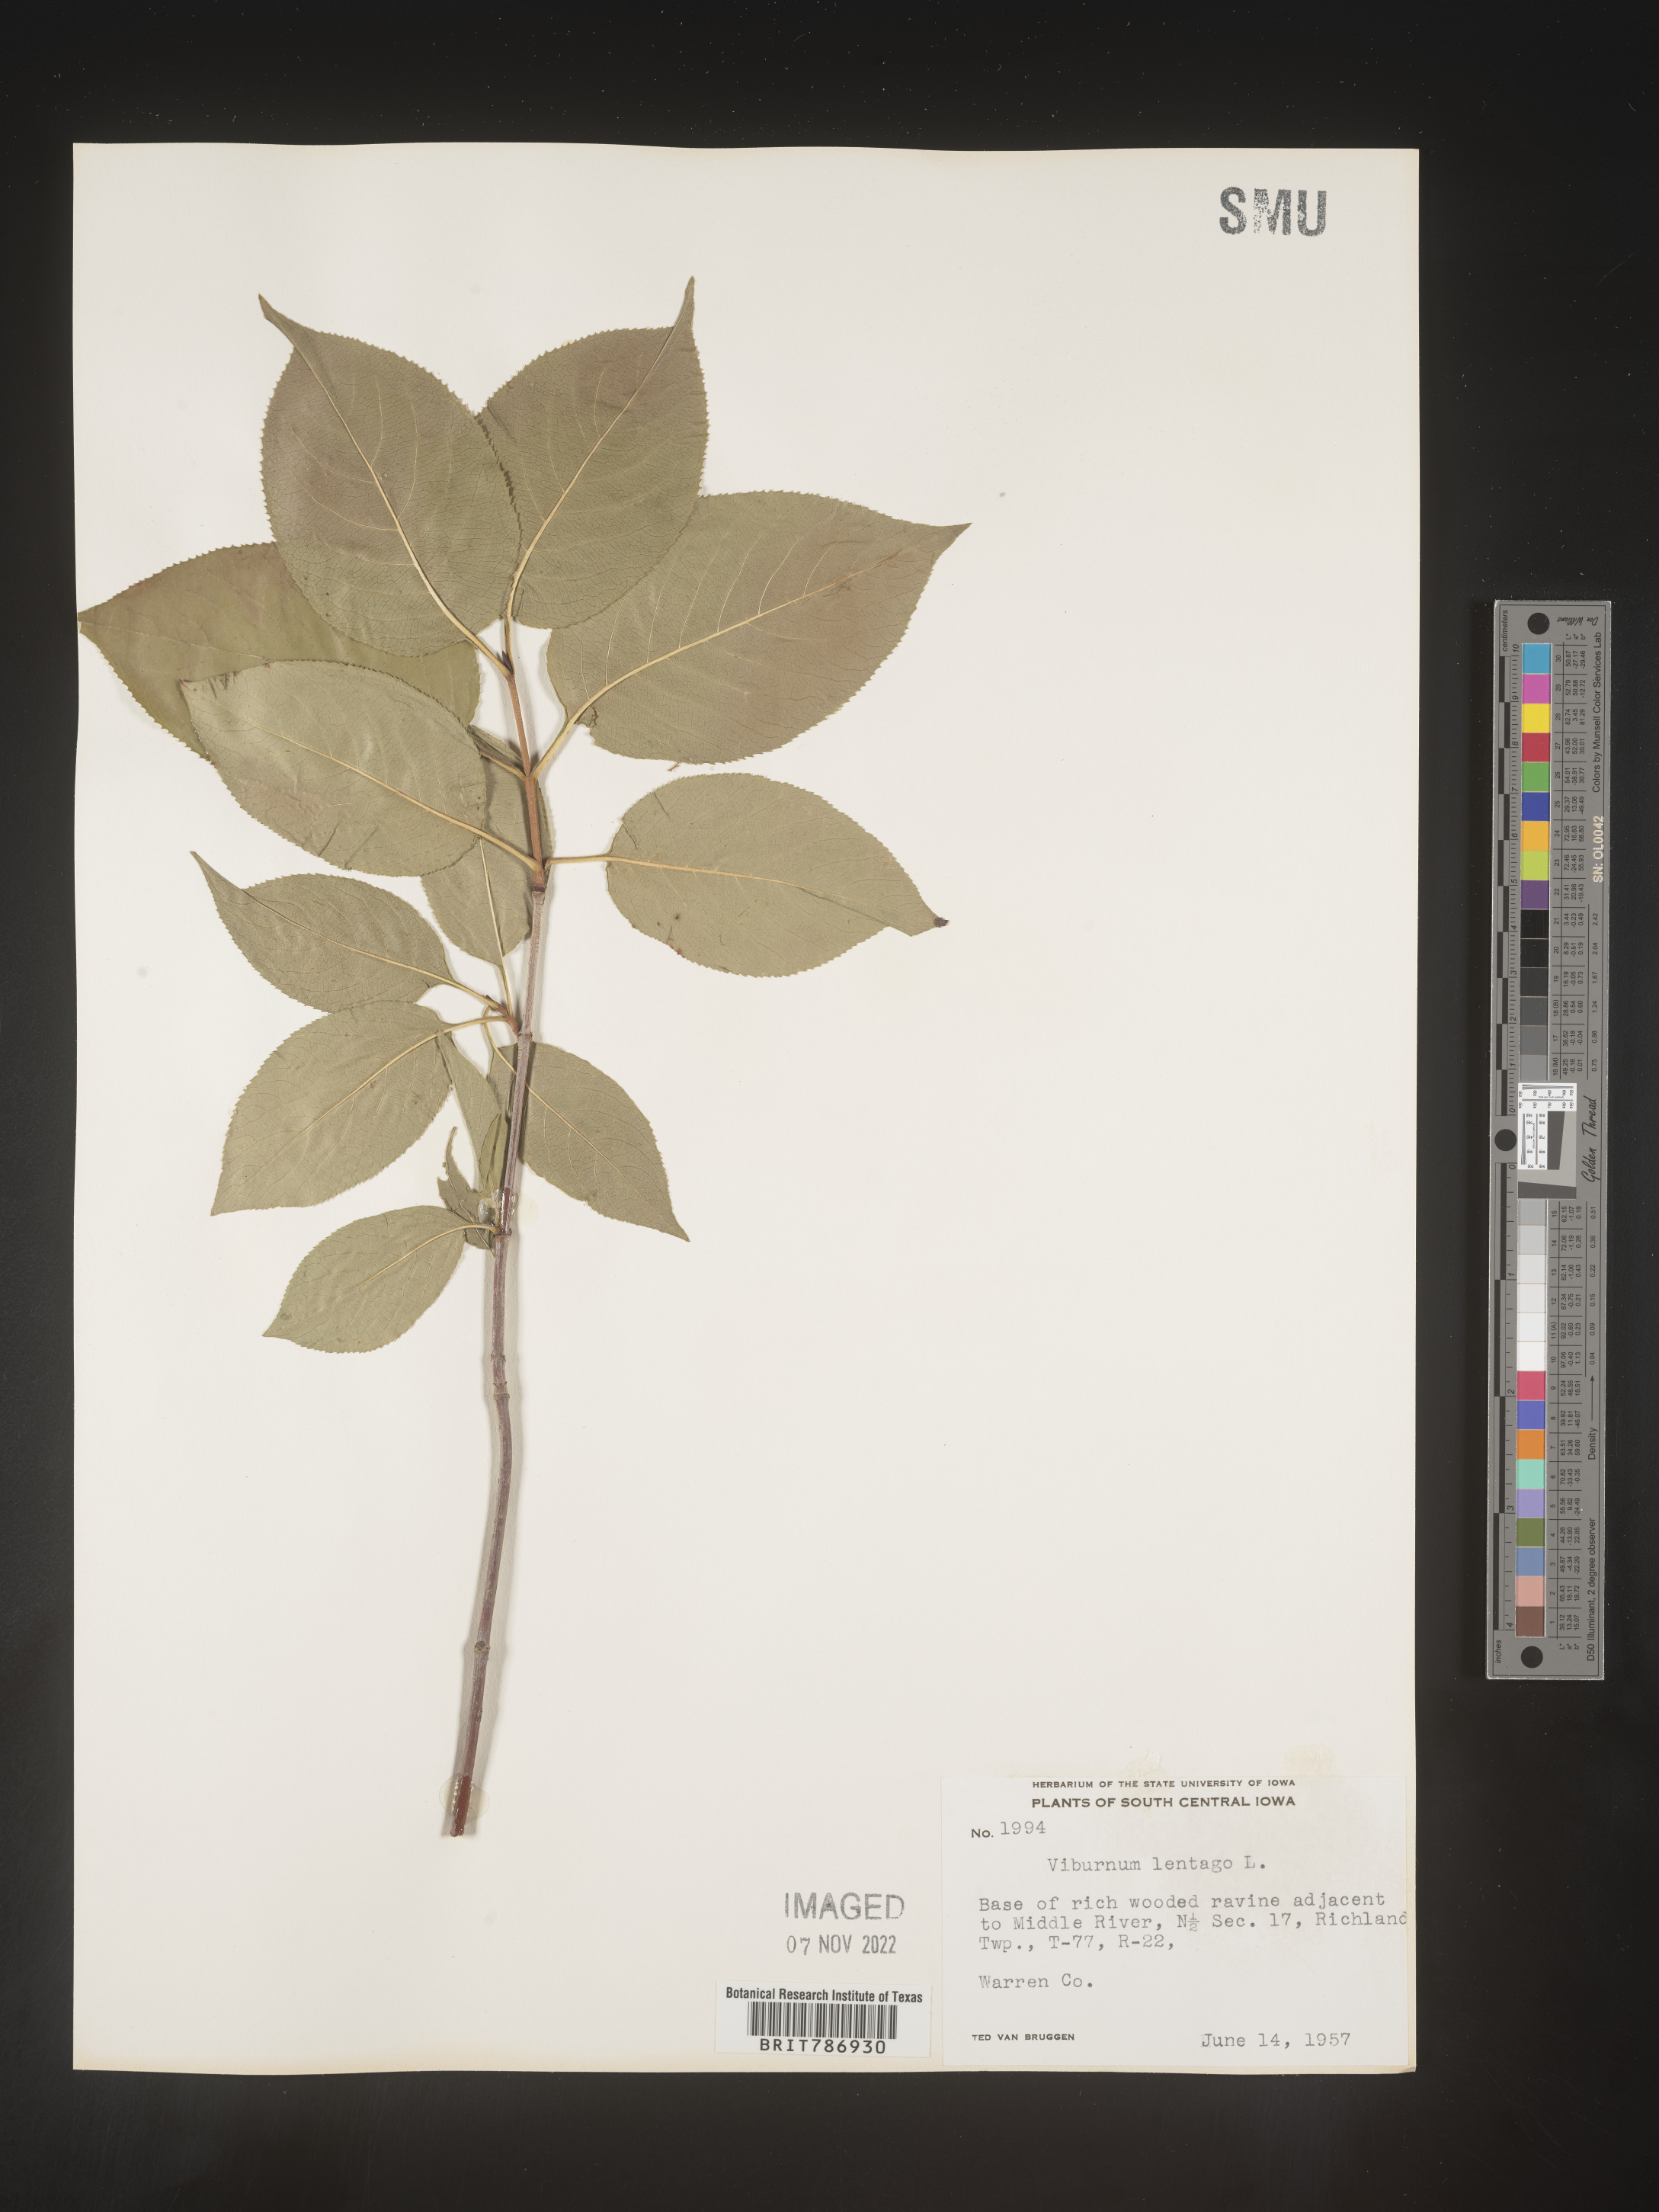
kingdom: Plantae
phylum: Tracheophyta
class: Magnoliopsida
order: Dipsacales
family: Viburnaceae
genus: Viburnum
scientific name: Viburnum lentago
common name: Black haw
